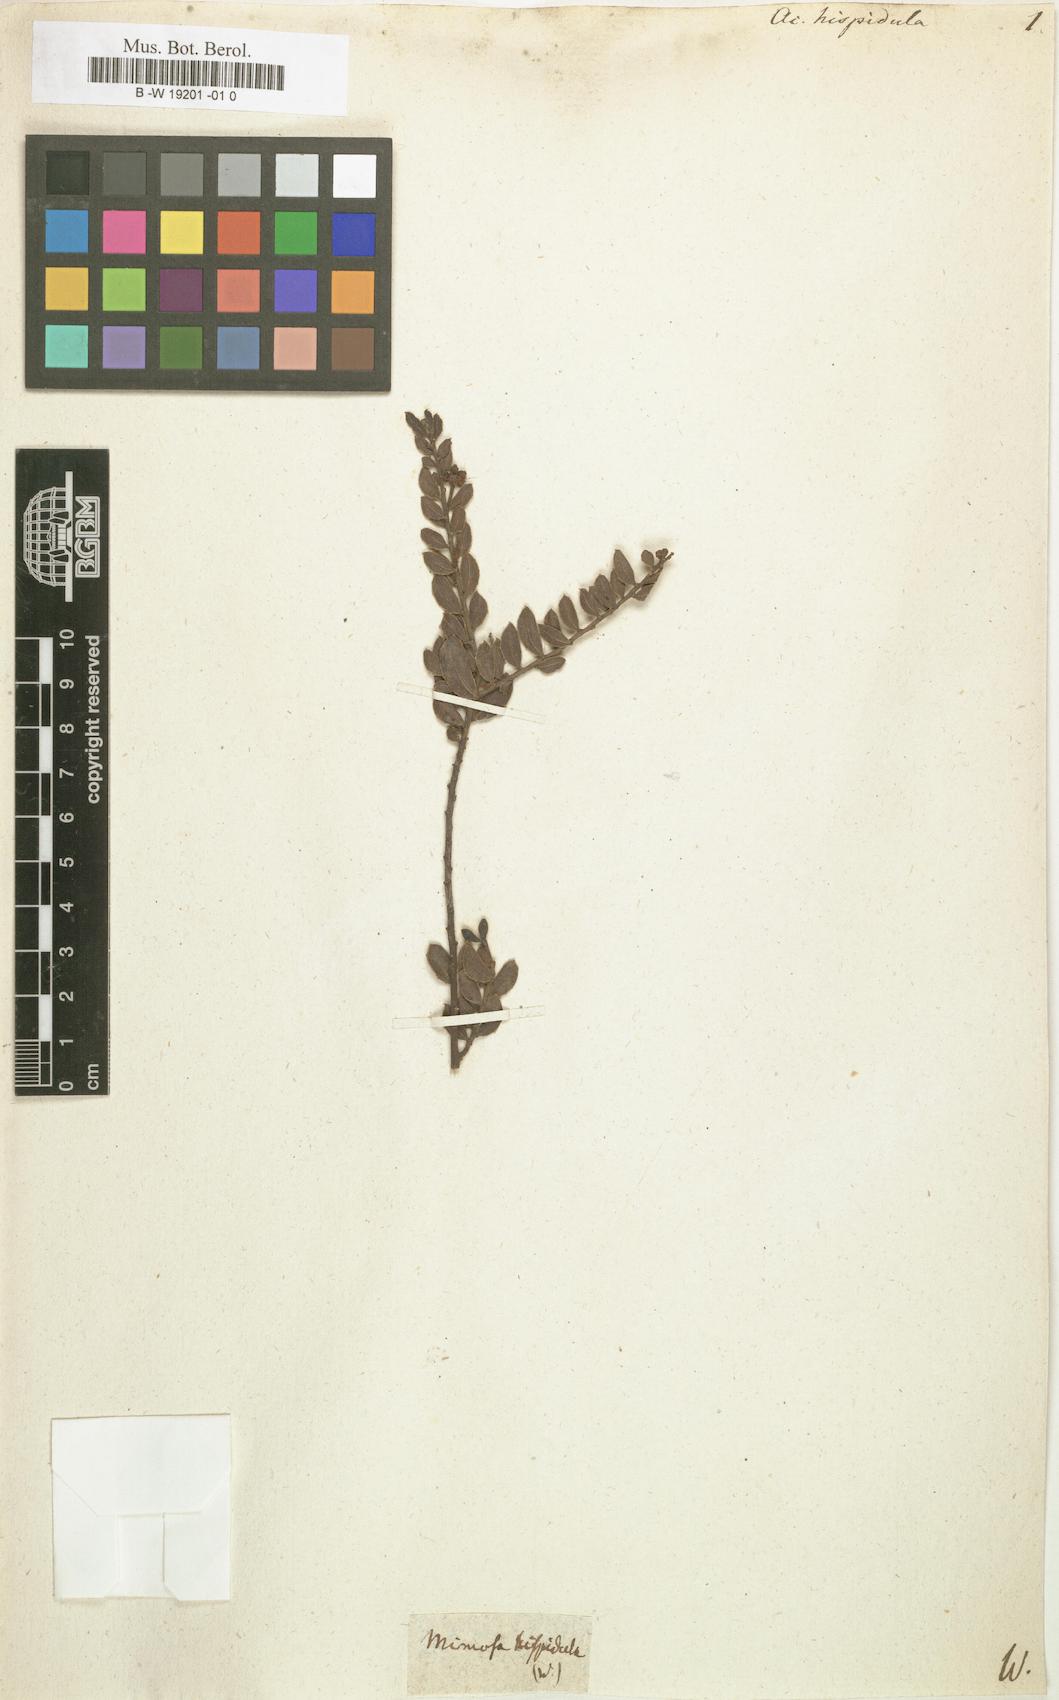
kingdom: Plantae
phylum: Tracheophyta
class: Magnoliopsida
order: Fabales
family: Fabaceae
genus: Acacia
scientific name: Acacia hispidula
